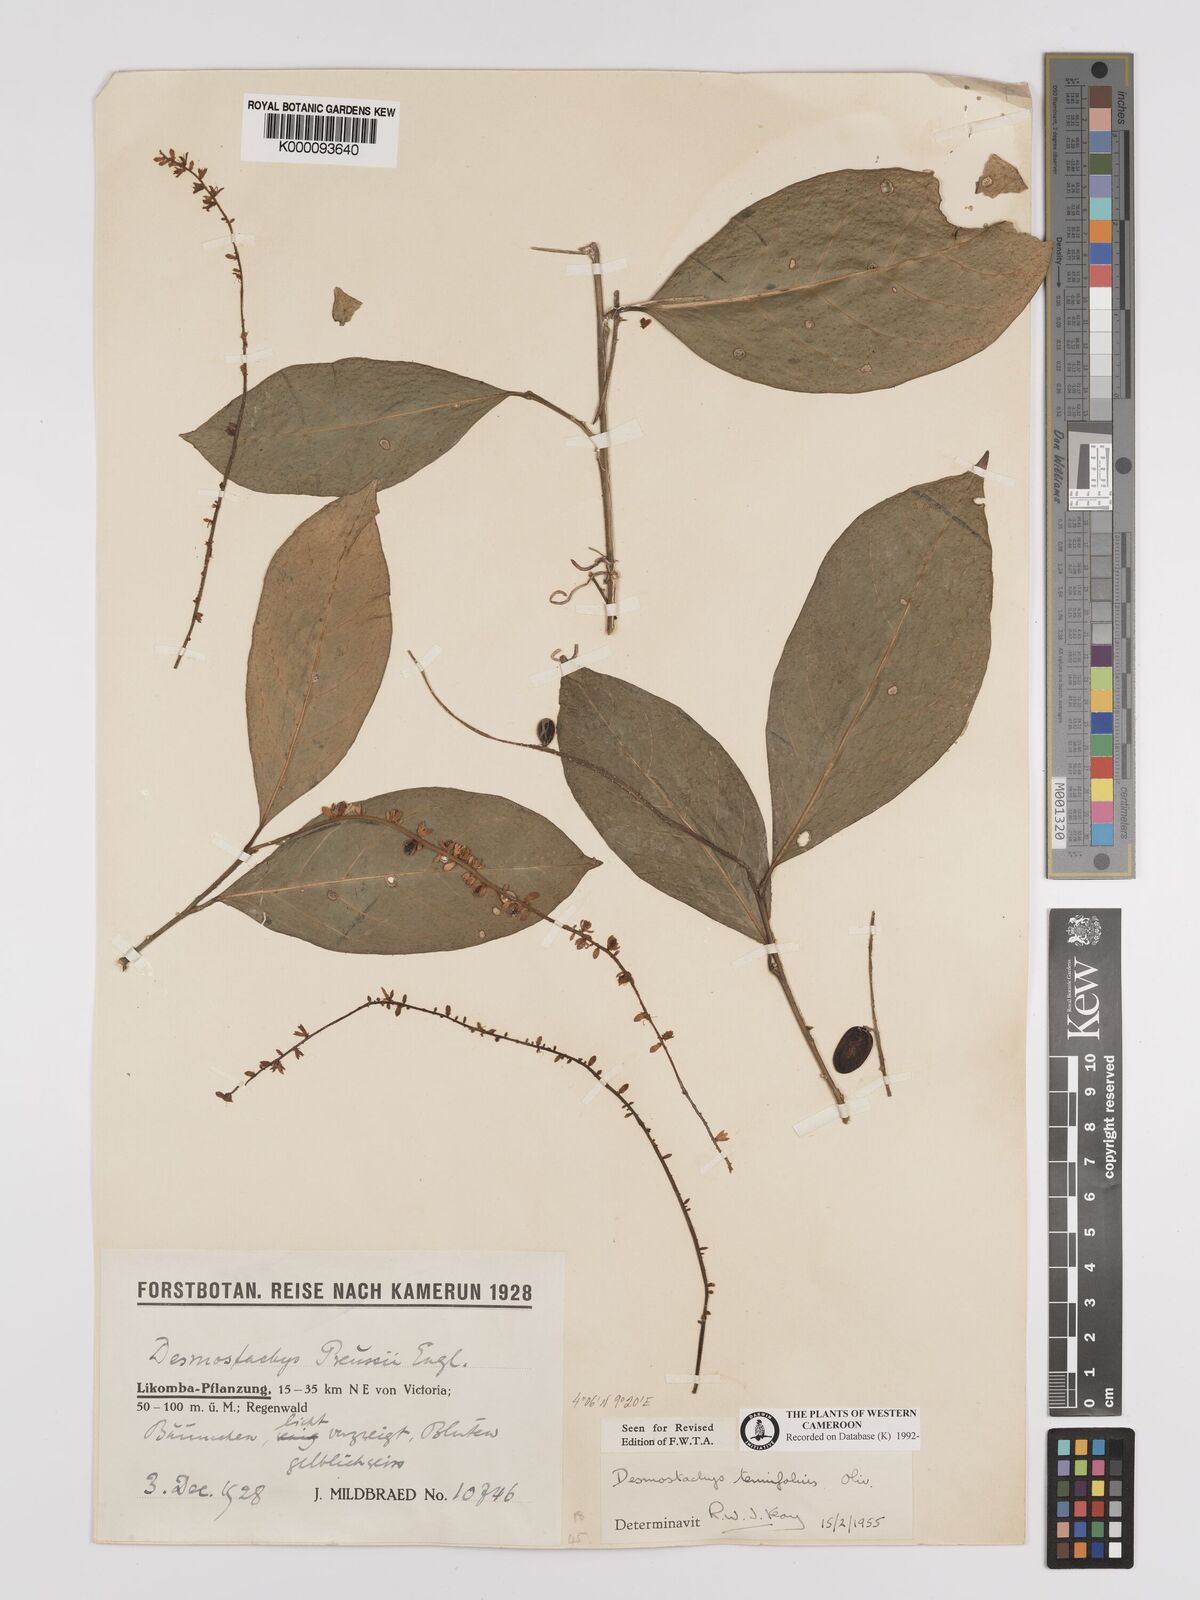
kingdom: Plantae
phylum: Tracheophyta
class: Magnoliopsida
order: Icacinales
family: Icacinaceae
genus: Vadensea
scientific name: Vadensea tenuifolia
